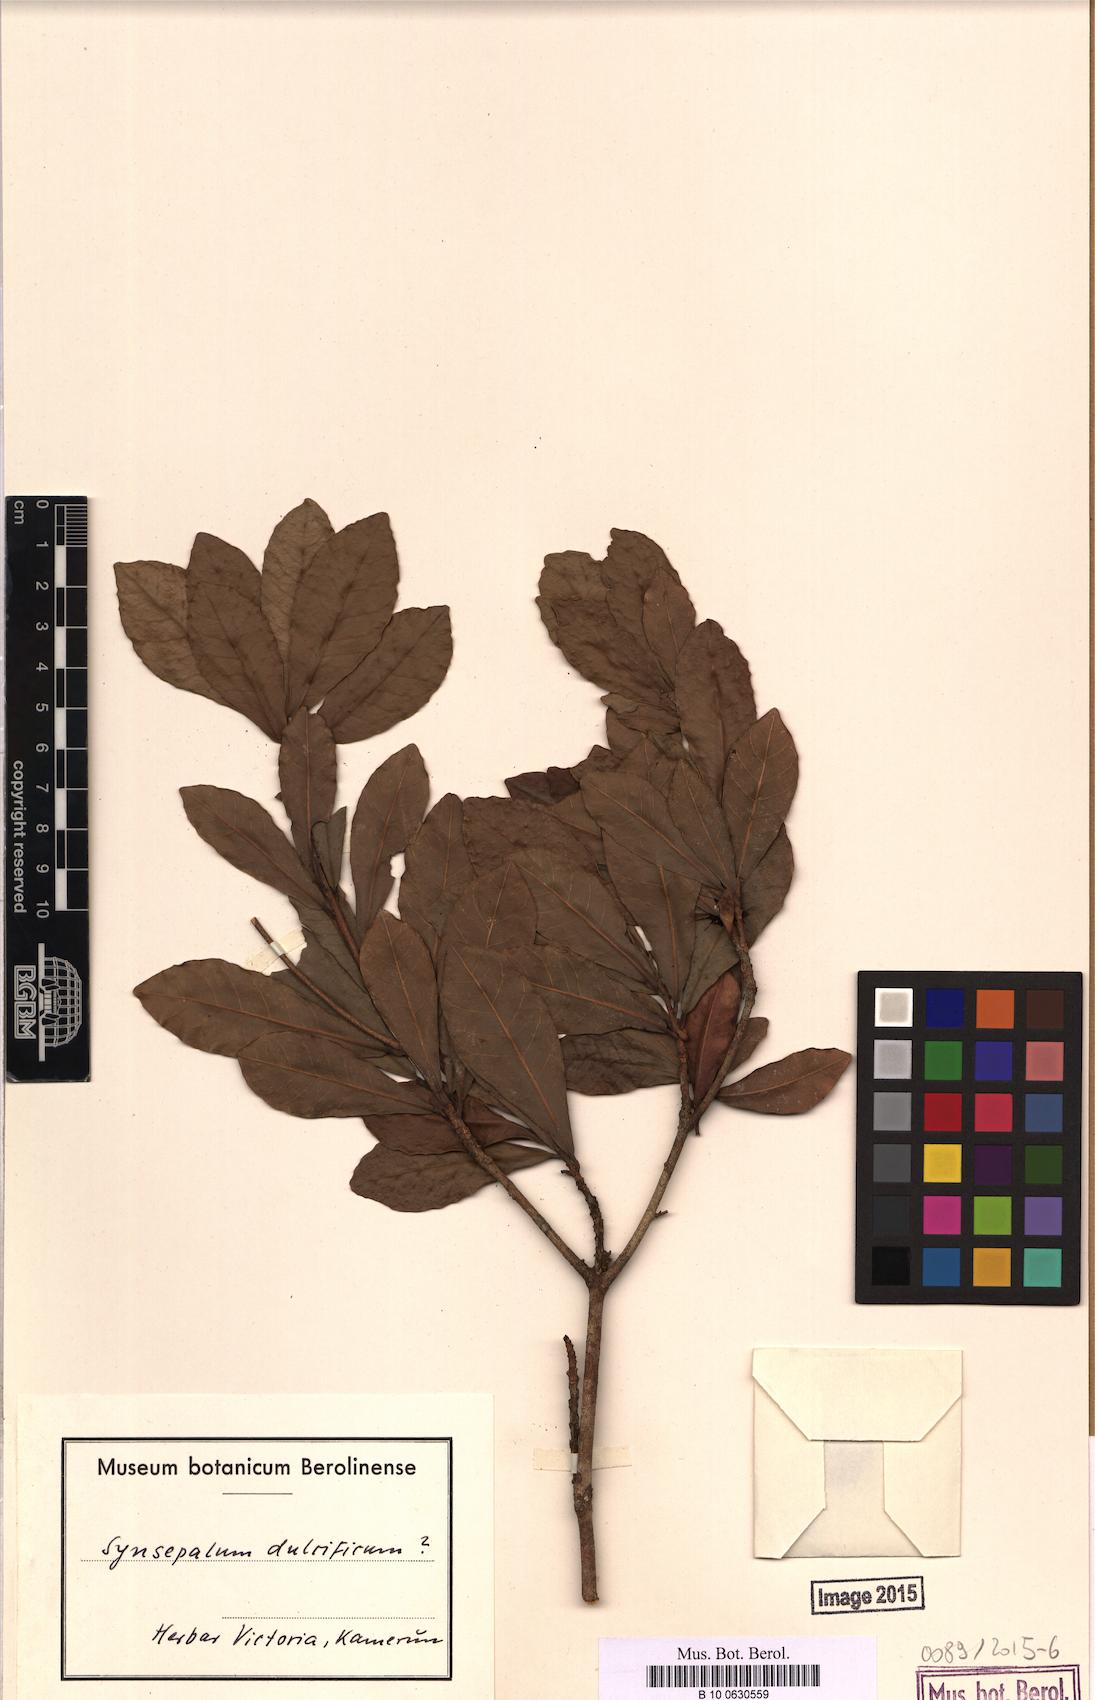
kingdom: Plantae
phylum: Tracheophyta
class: Magnoliopsida
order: Ericales
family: Sapotaceae
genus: Synsepalum
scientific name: Synsepalum dulcificum
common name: Miracle-fruit
